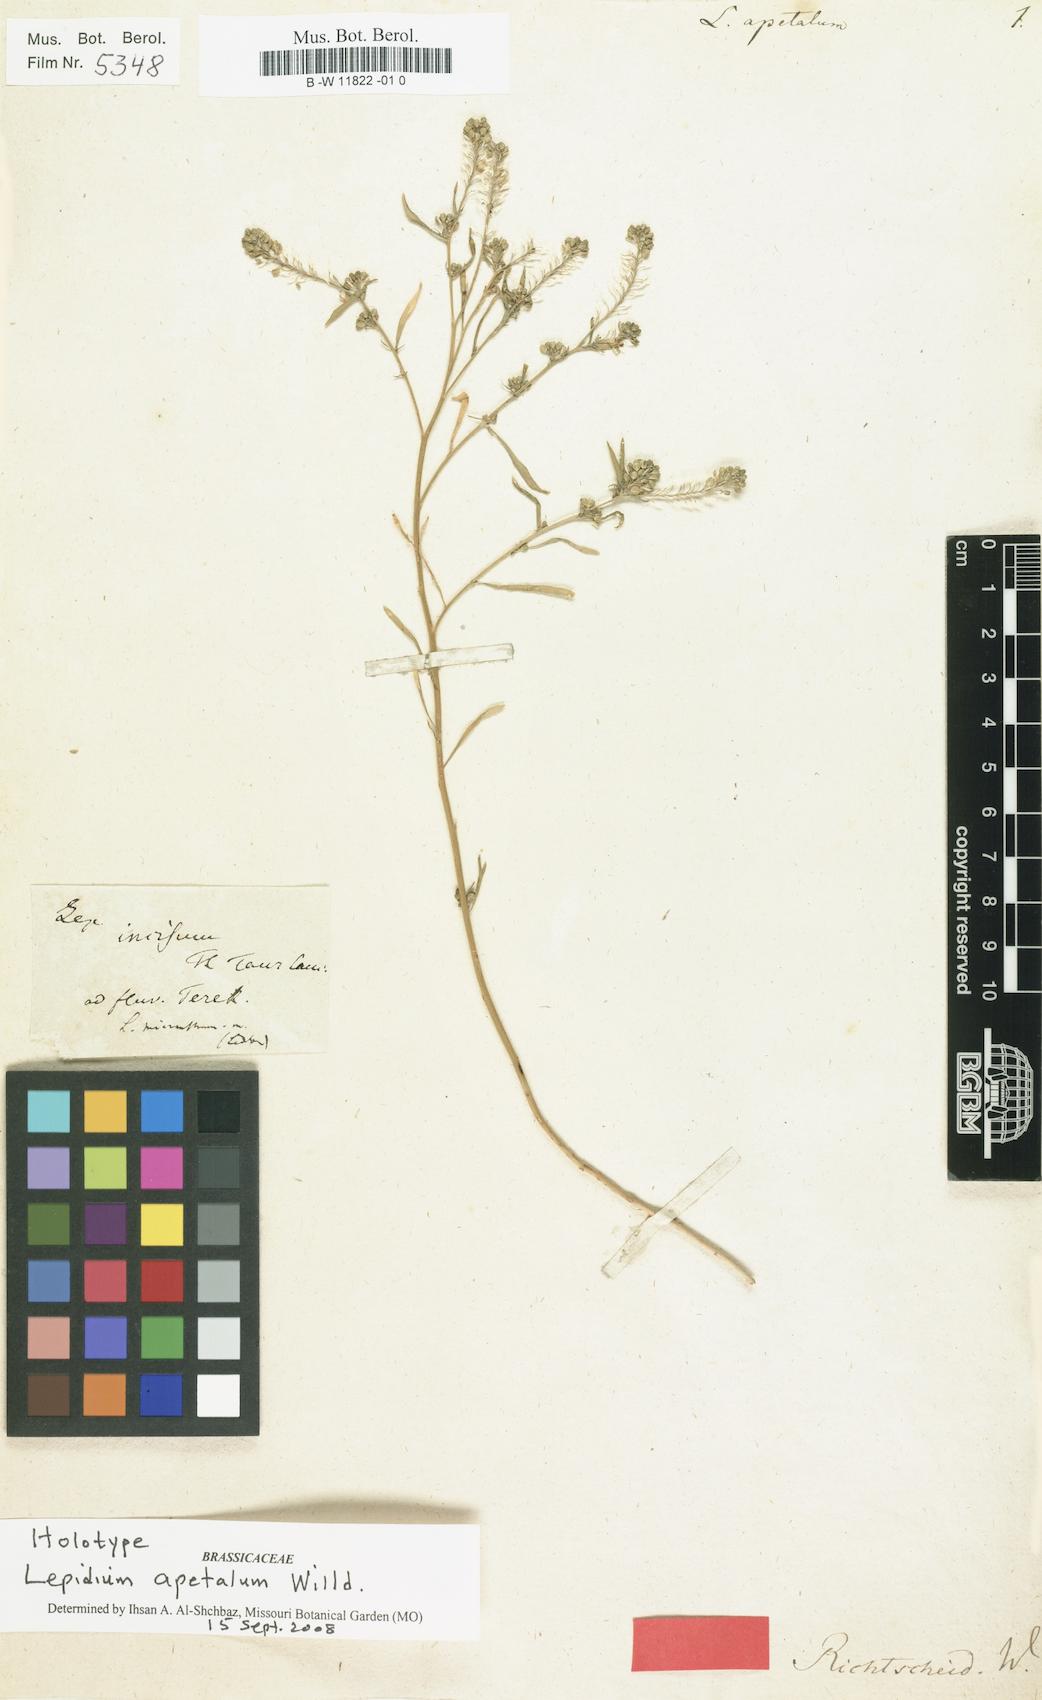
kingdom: Plantae
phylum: Tracheophyta
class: Magnoliopsida
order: Brassicales
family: Brassicaceae
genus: Lepidium
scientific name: Lepidium apetalum
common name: Pepperweed
